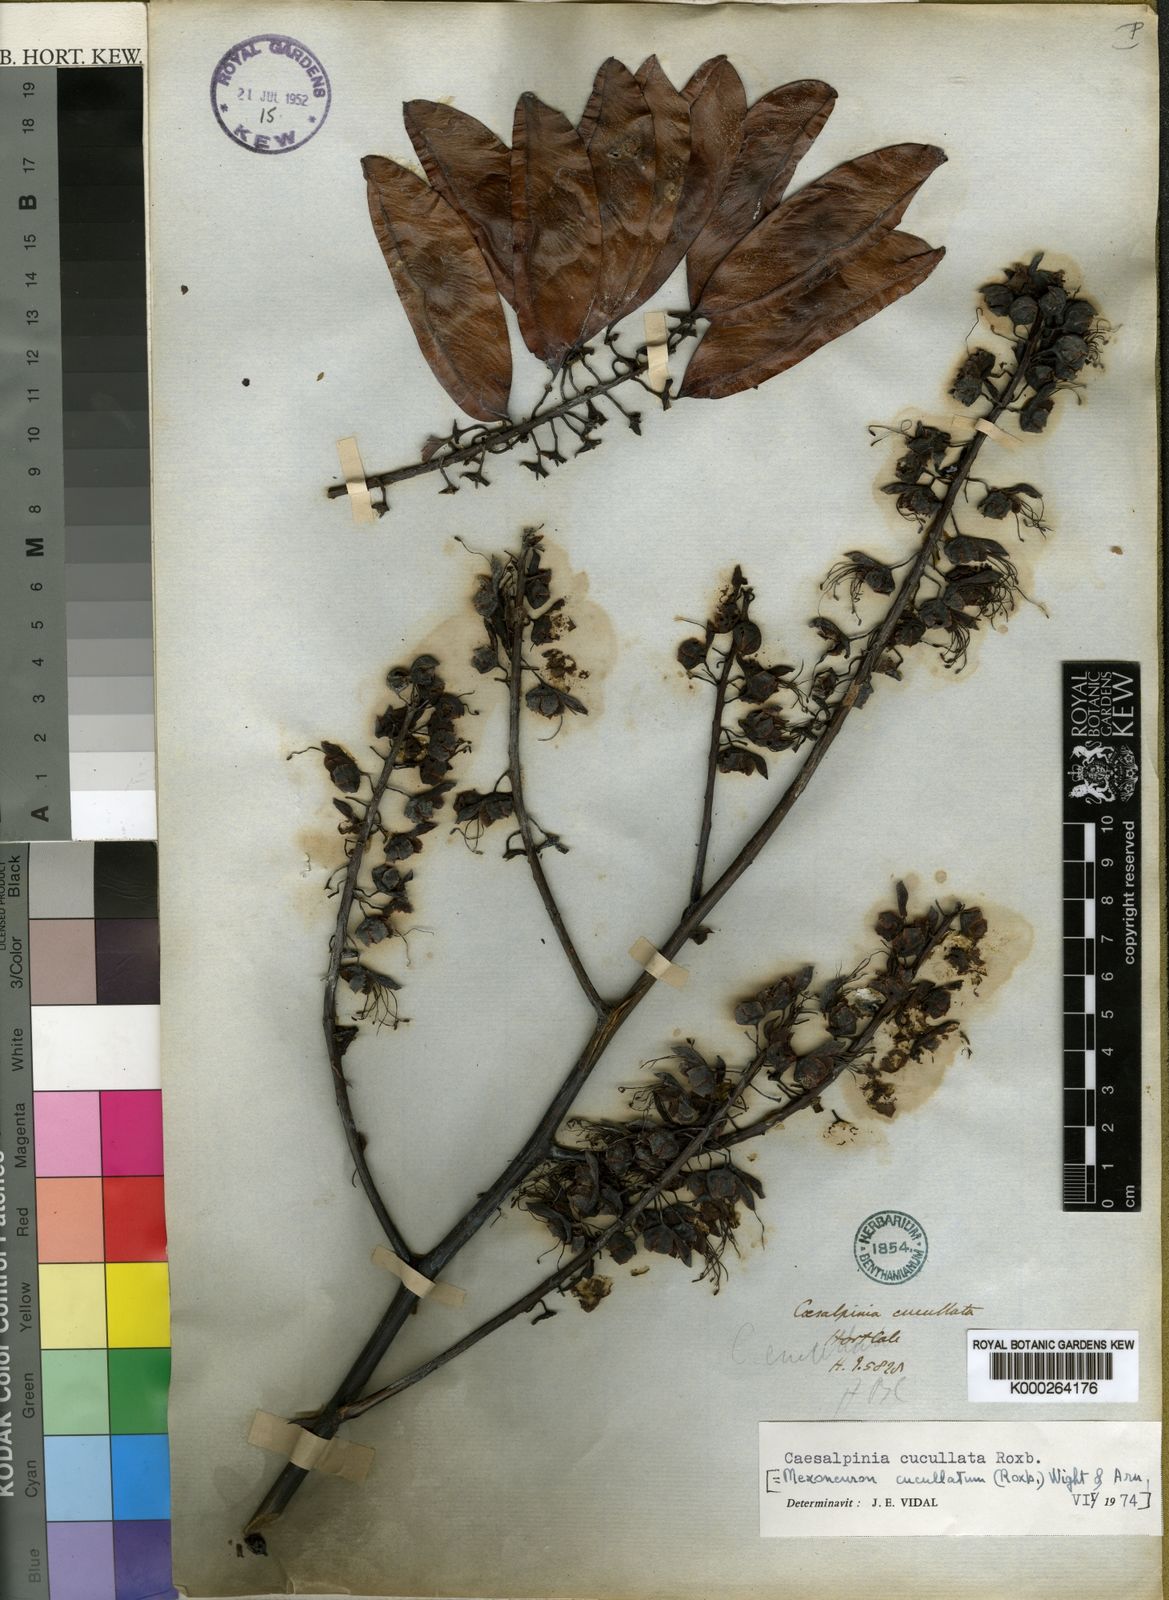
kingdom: Plantae
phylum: Tracheophyta
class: Magnoliopsida
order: Fabales
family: Fabaceae
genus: Mezoneuron
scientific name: Mezoneuron cucullatum
